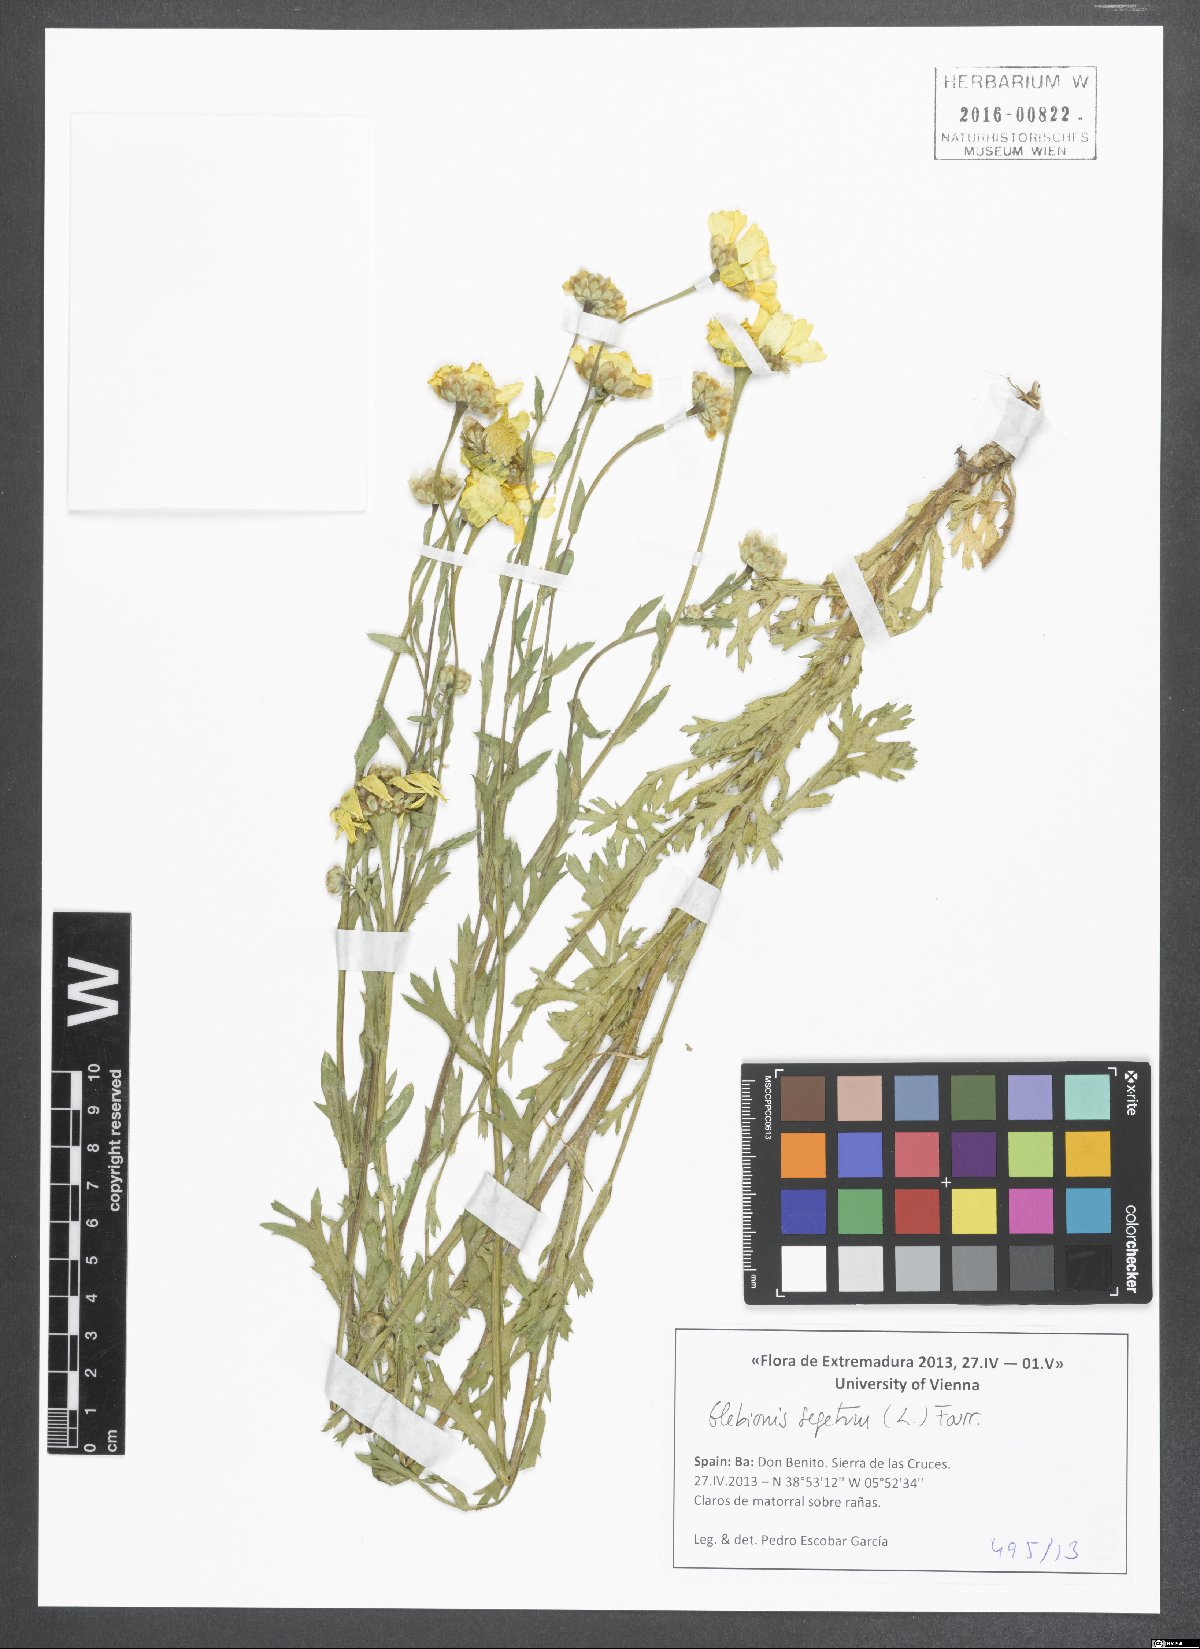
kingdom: Plantae
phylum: Tracheophyta
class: Magnoliopsida
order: Asterales
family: Asteraceae
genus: Glebionis
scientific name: Glebionis segetum
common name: Corndaisy
